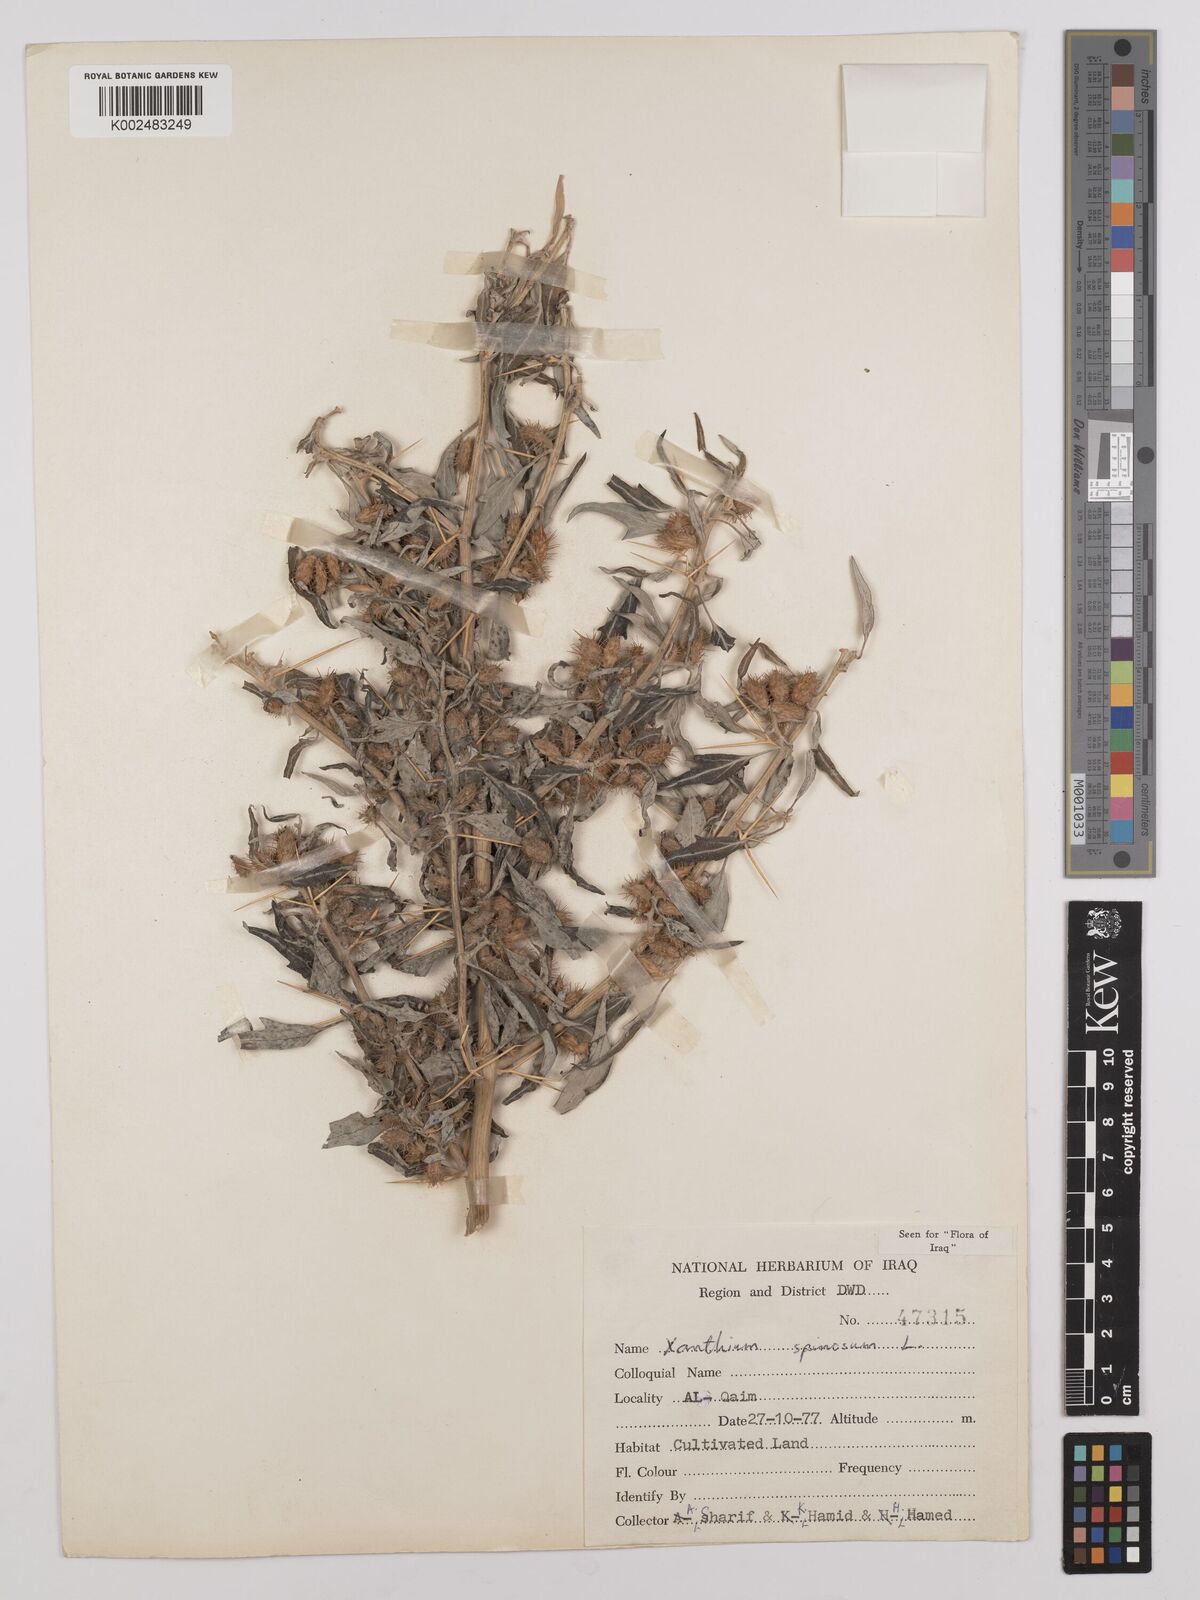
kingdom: Plantae
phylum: Tracheophyta
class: Magnoliopsida
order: Asterales
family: Asteraceae
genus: Xanthium
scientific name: Xanthium spinosum
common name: Spiny cocklebur
